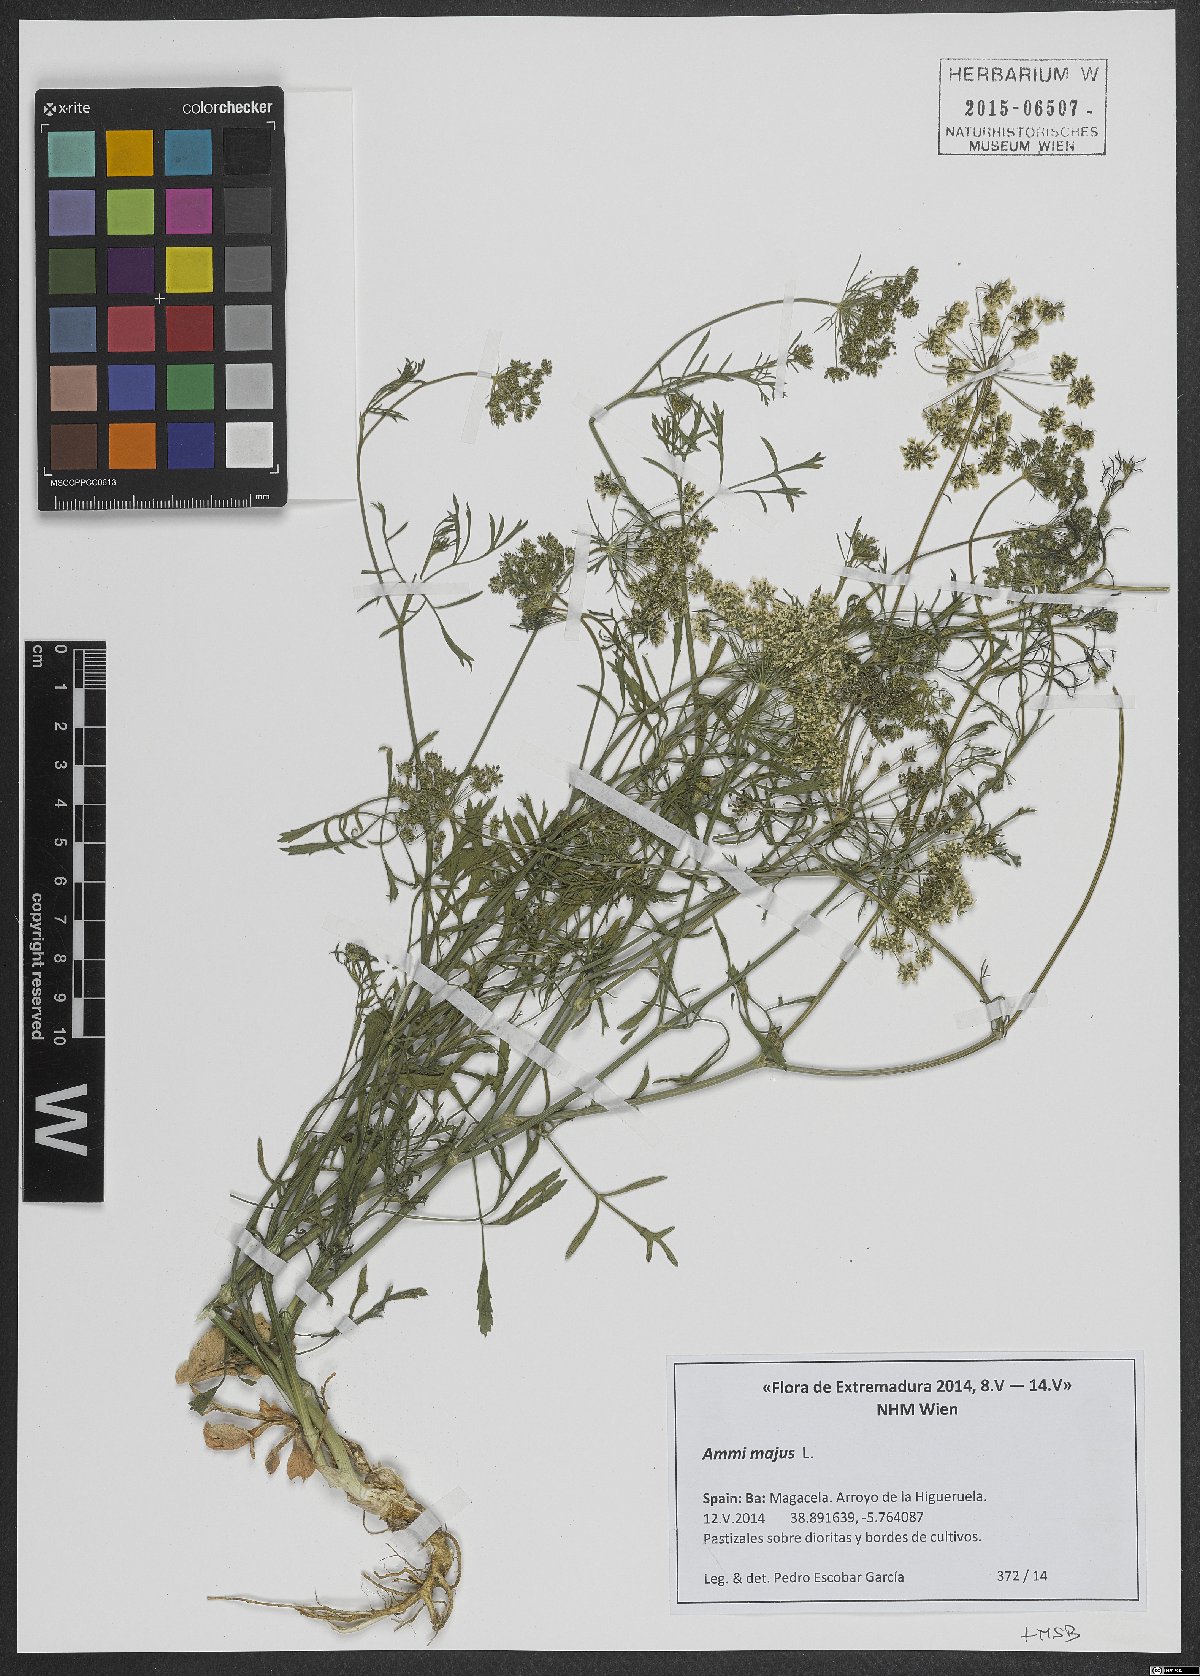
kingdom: Plantae
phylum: Tracheophyta
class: Magnoliopsida
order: Apiales
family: Apiaceae
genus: Ammi
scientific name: Ammi majus
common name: Bullwort
